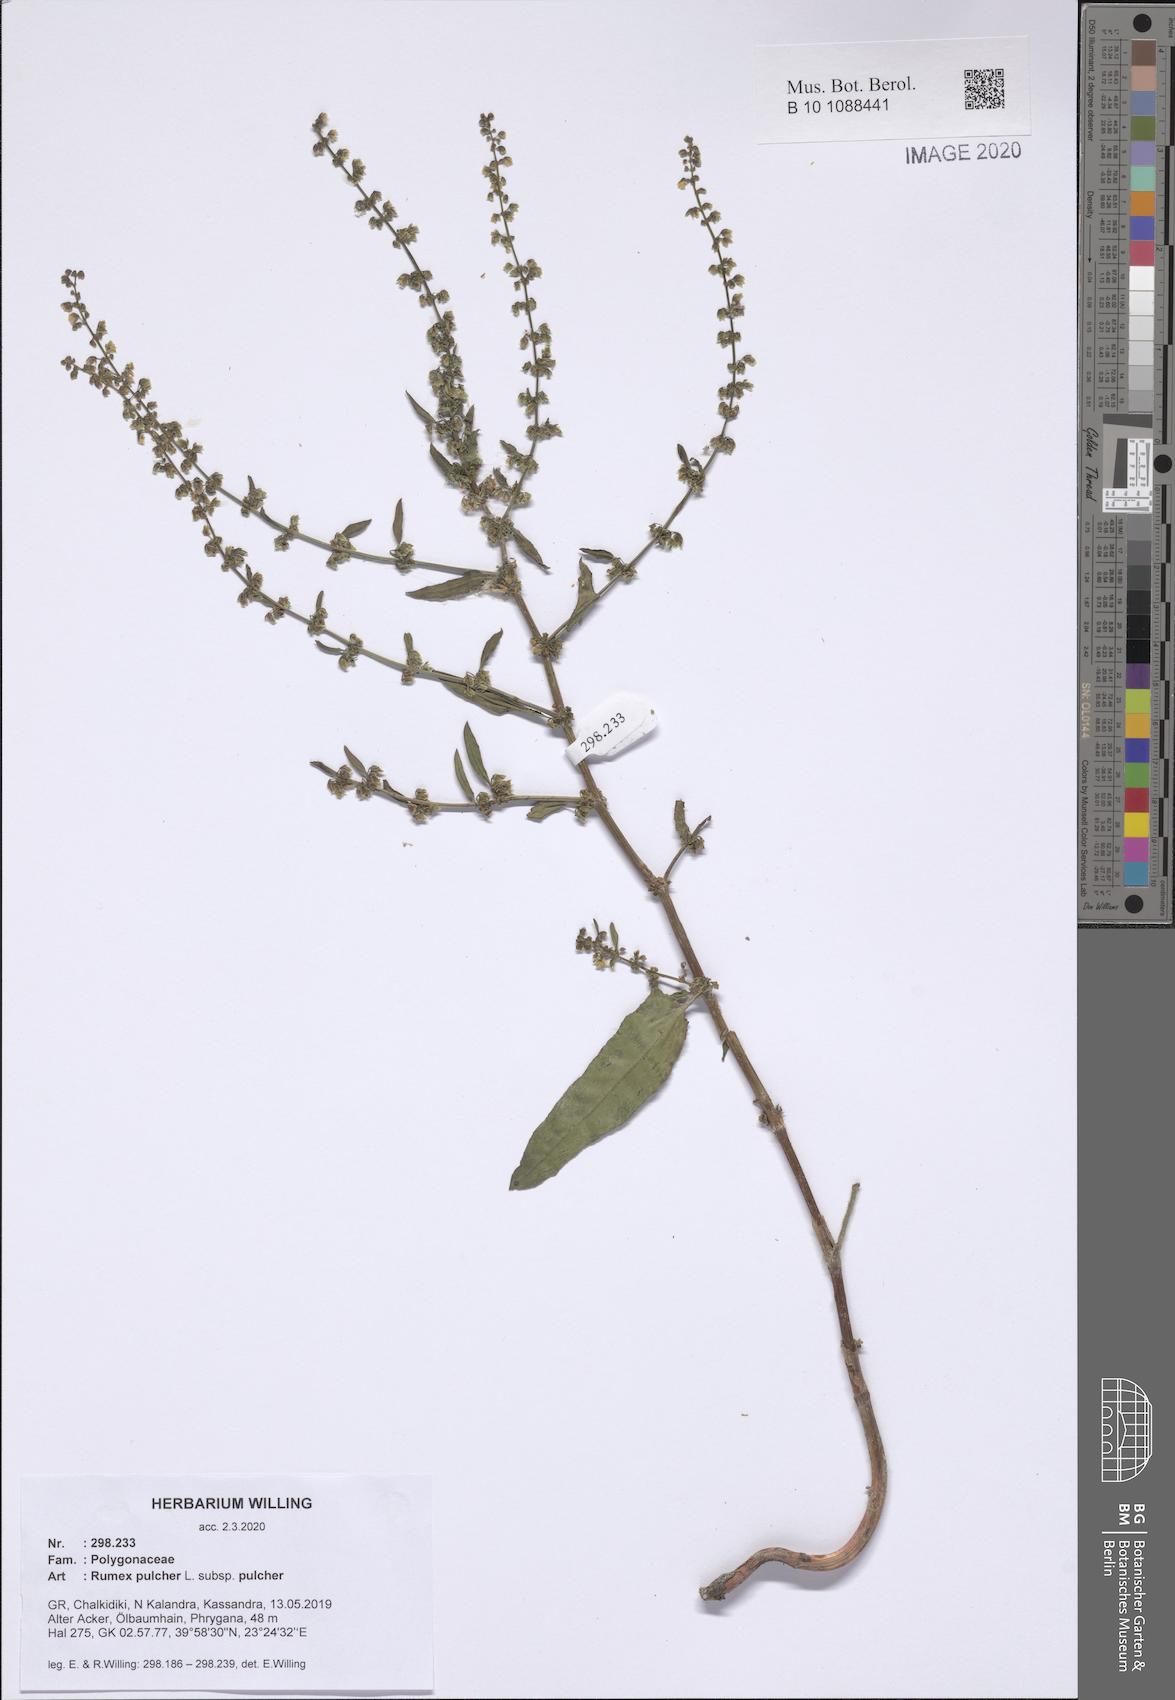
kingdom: Plantae
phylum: Tracheophyta
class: Magnoliopsida
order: Caryophyllales
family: Polygonaceae
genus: Rumex
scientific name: Rumex pulcher
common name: Fiddle dock
